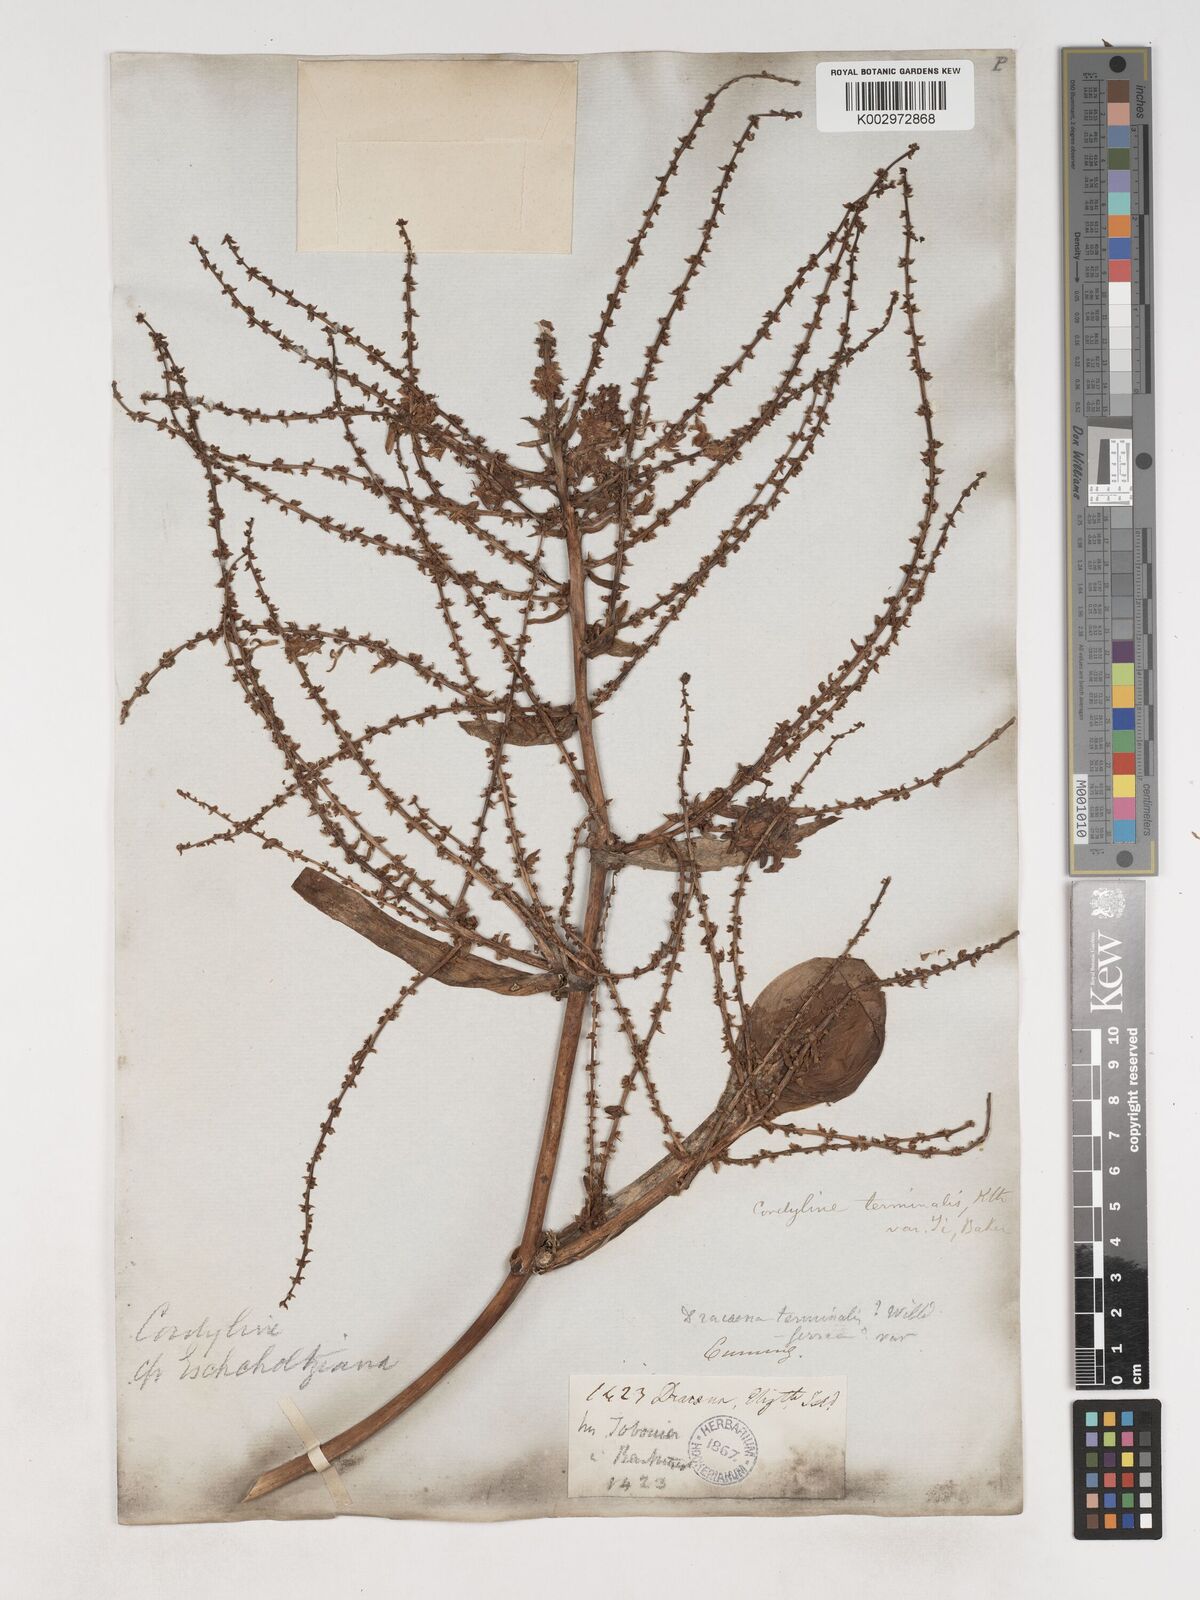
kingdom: Plantae
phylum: Tracheophyta
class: Liliopsida
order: Asparagales
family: Asparagaceae
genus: Cordyline
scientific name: Cordyline fruticosa
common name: Good-luck-plant
